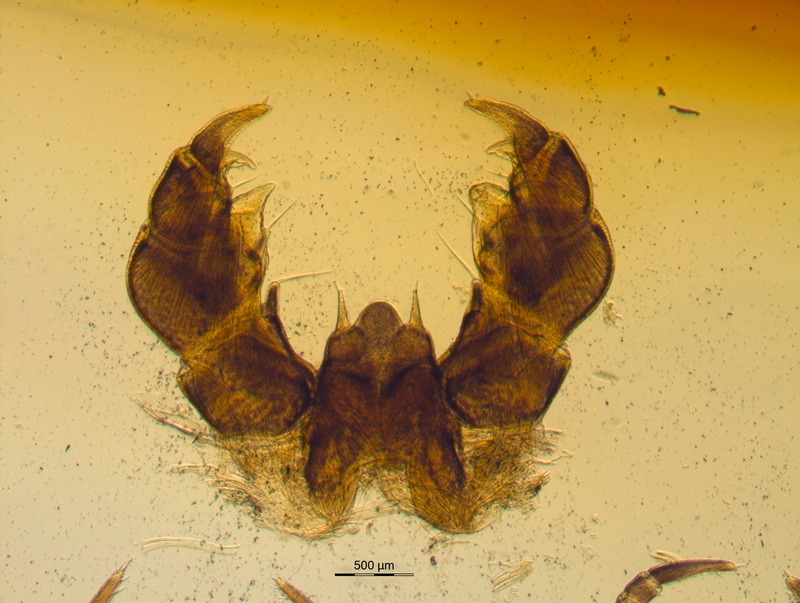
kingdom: Animalia
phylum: Arthropoda
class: Diplopoda
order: Glomerida
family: Glomeridae
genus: Glomeris
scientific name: Glomeris conspersa
